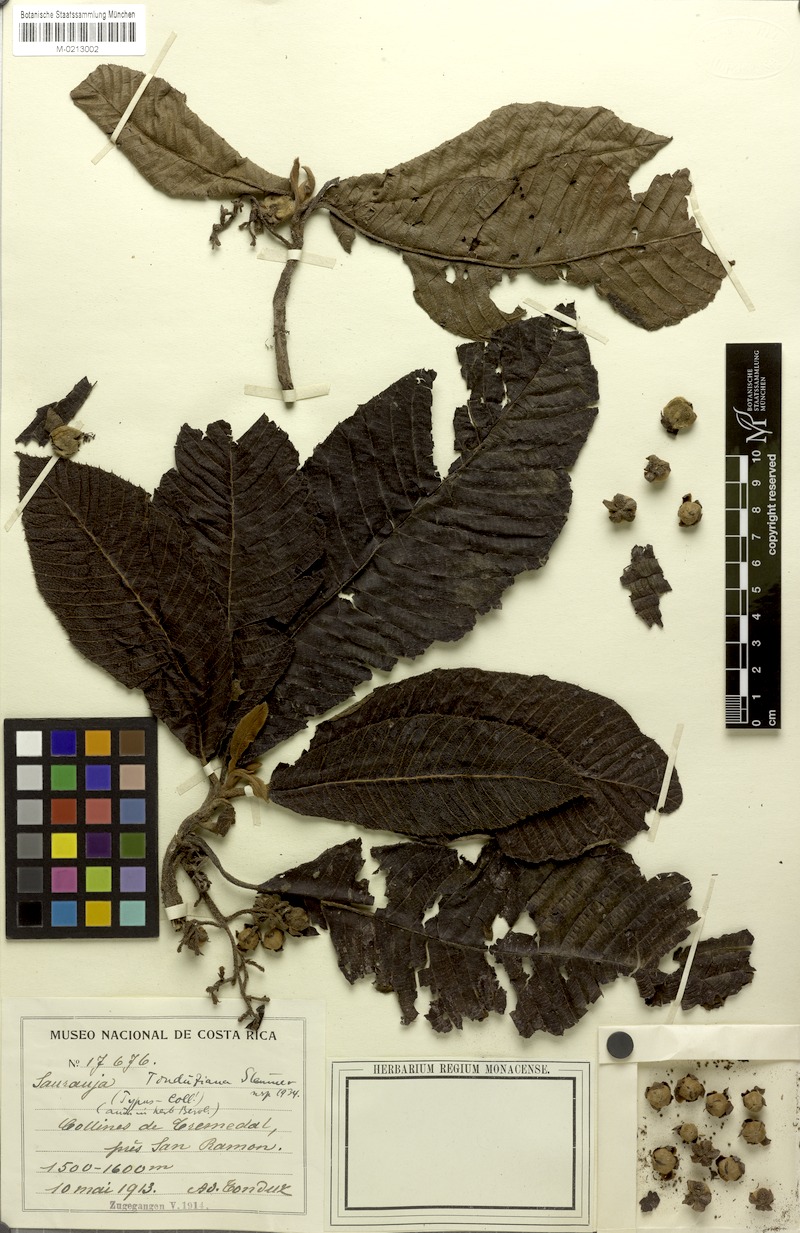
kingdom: Plantae
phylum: Tracheophyta
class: Magnoliopsida
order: Ericales
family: Actinidiaceae
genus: Saurauia
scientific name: Saurauia montana
